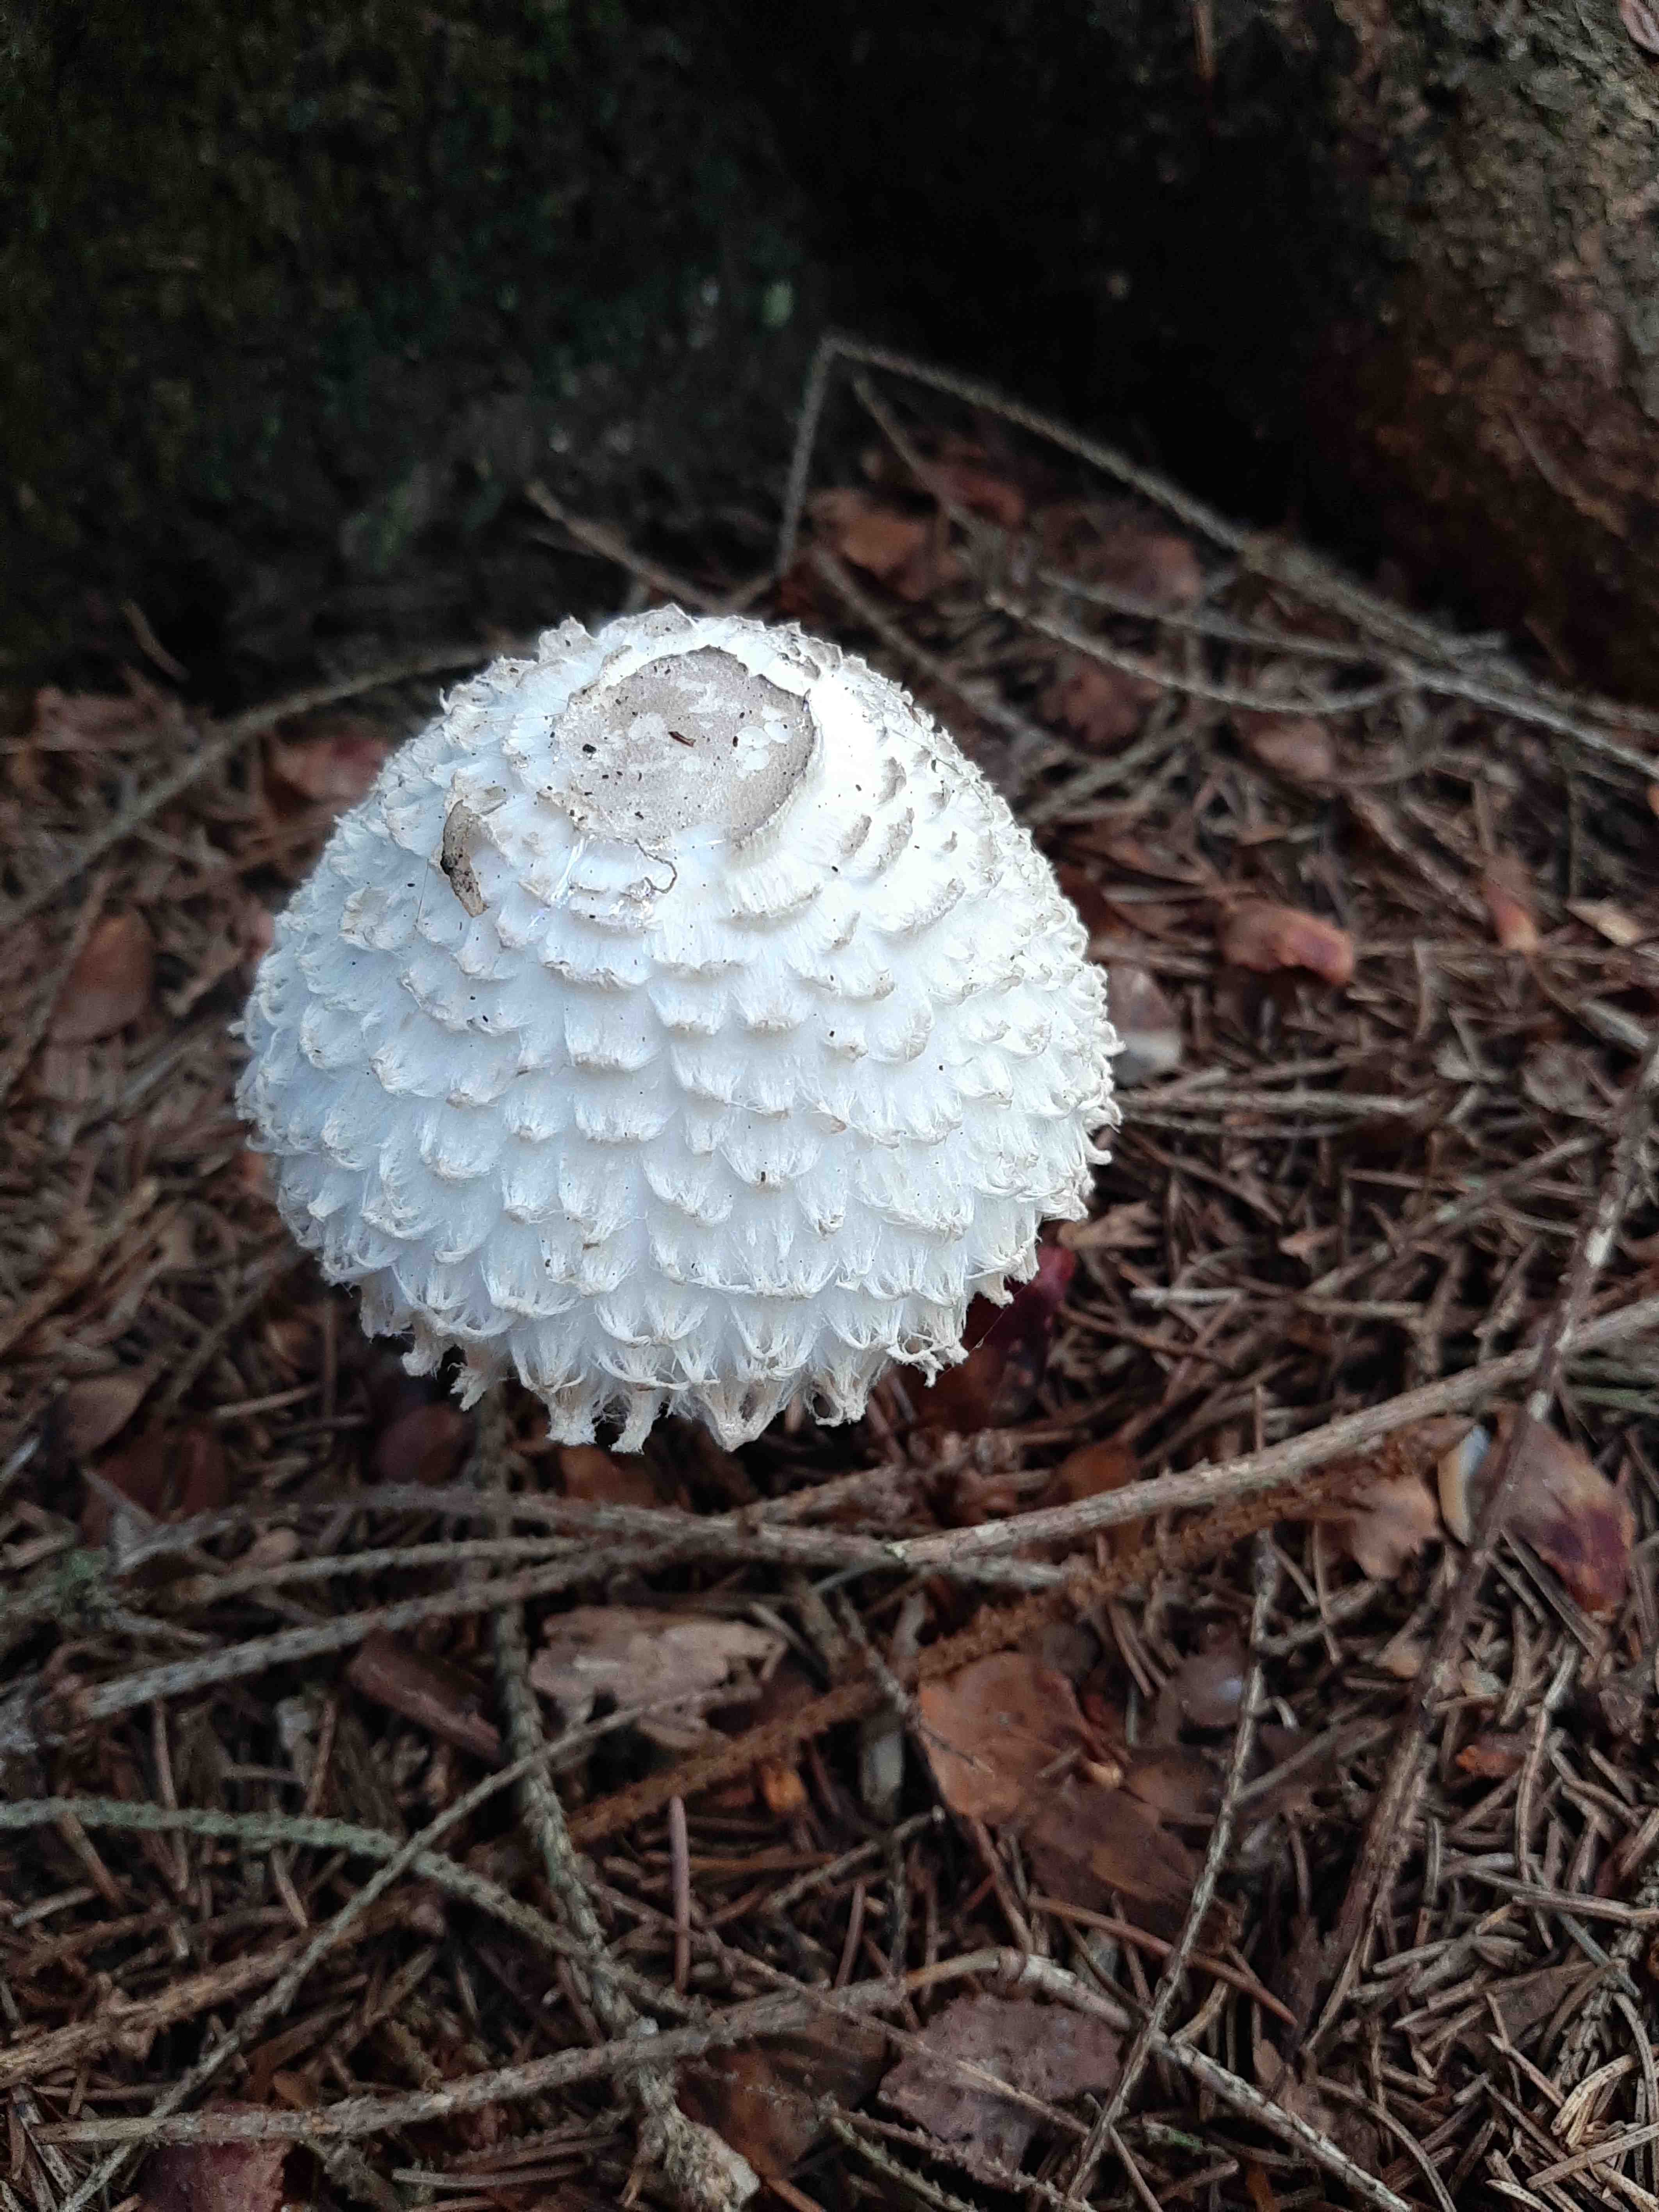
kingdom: Fungi
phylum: Basidiomycota
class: Agaricomycetes
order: Agaricales
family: Agaricaceae
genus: Leucoagaricus
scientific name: Leucoagaricus nympharum
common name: gran-silkehat
